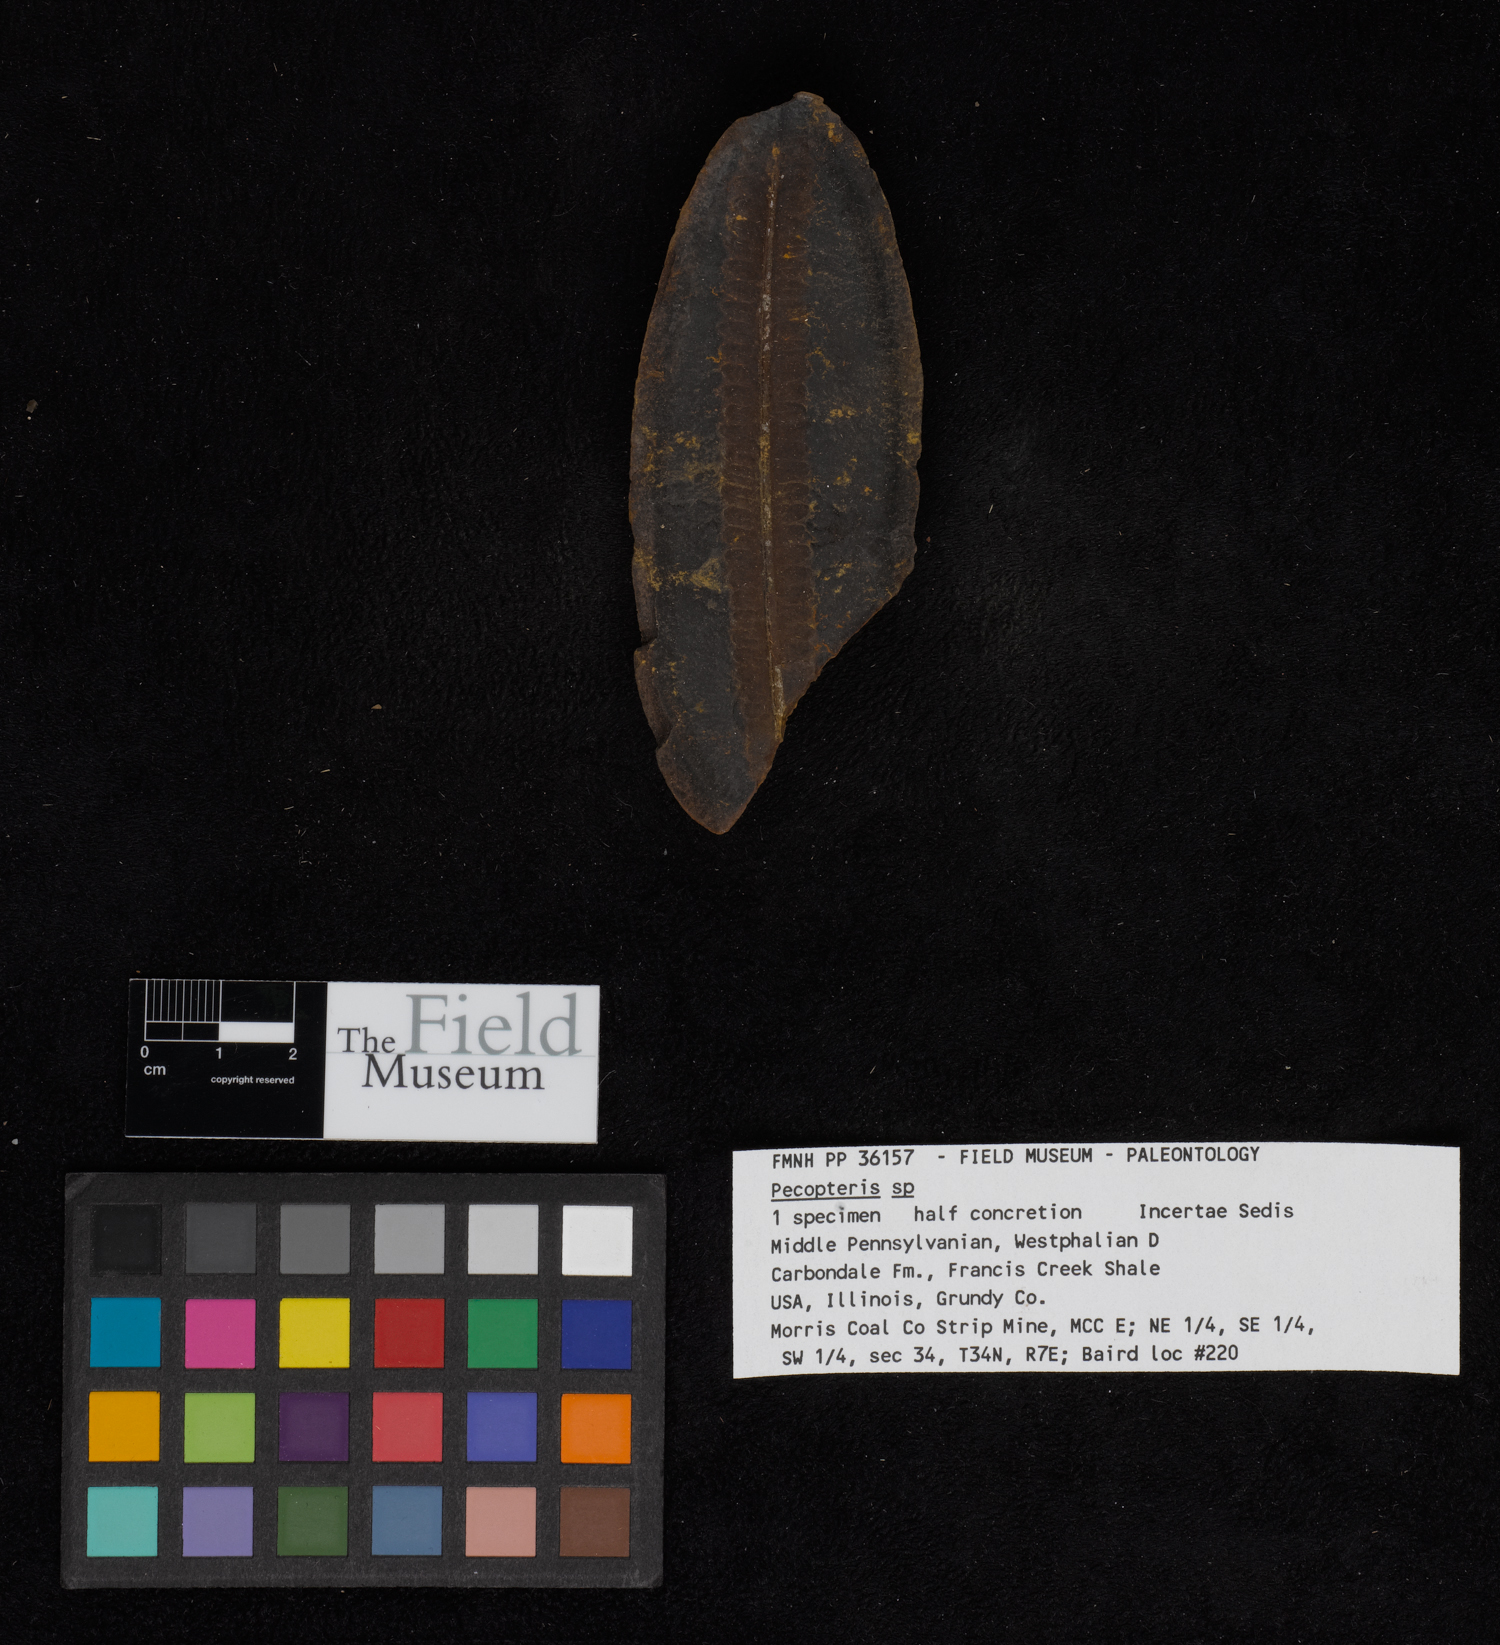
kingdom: Plantae
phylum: Tracheophyta
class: Polypodiopsida
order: Marattiales
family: Asterothecaceae
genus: Pecopteris
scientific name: Pecopteris
